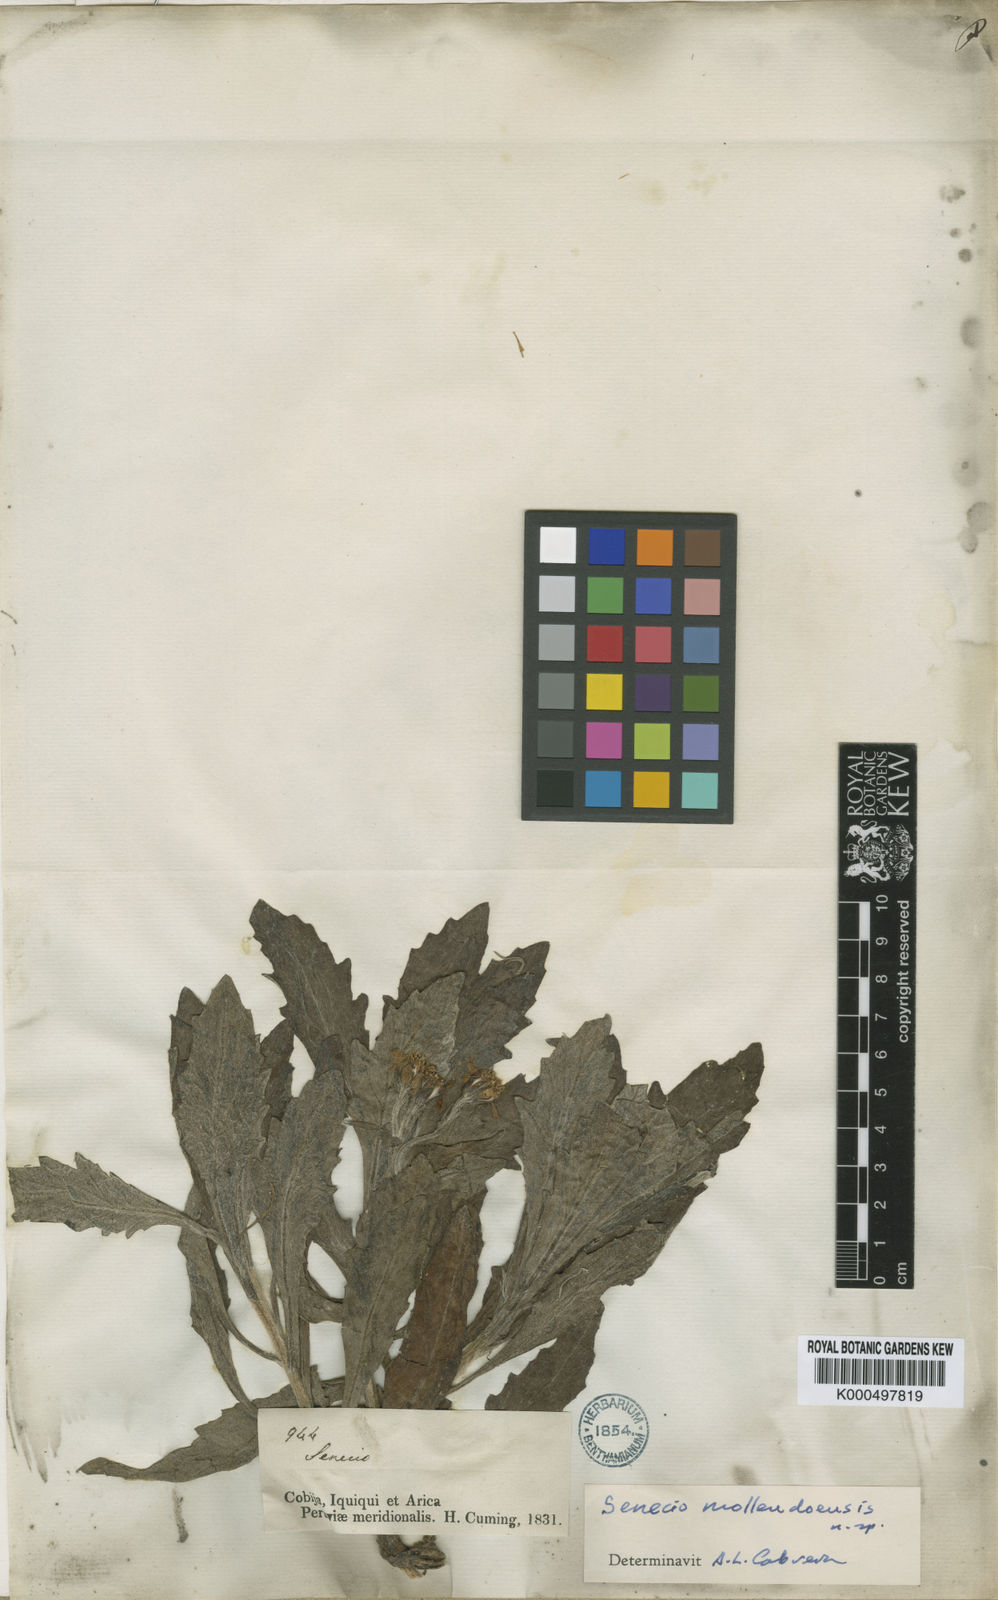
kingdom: Plantae
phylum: Tracheophyta
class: Magnoliopsida
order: Asterales
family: Asteraceae
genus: Lomanthus
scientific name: Lomanthus mollendoensis
